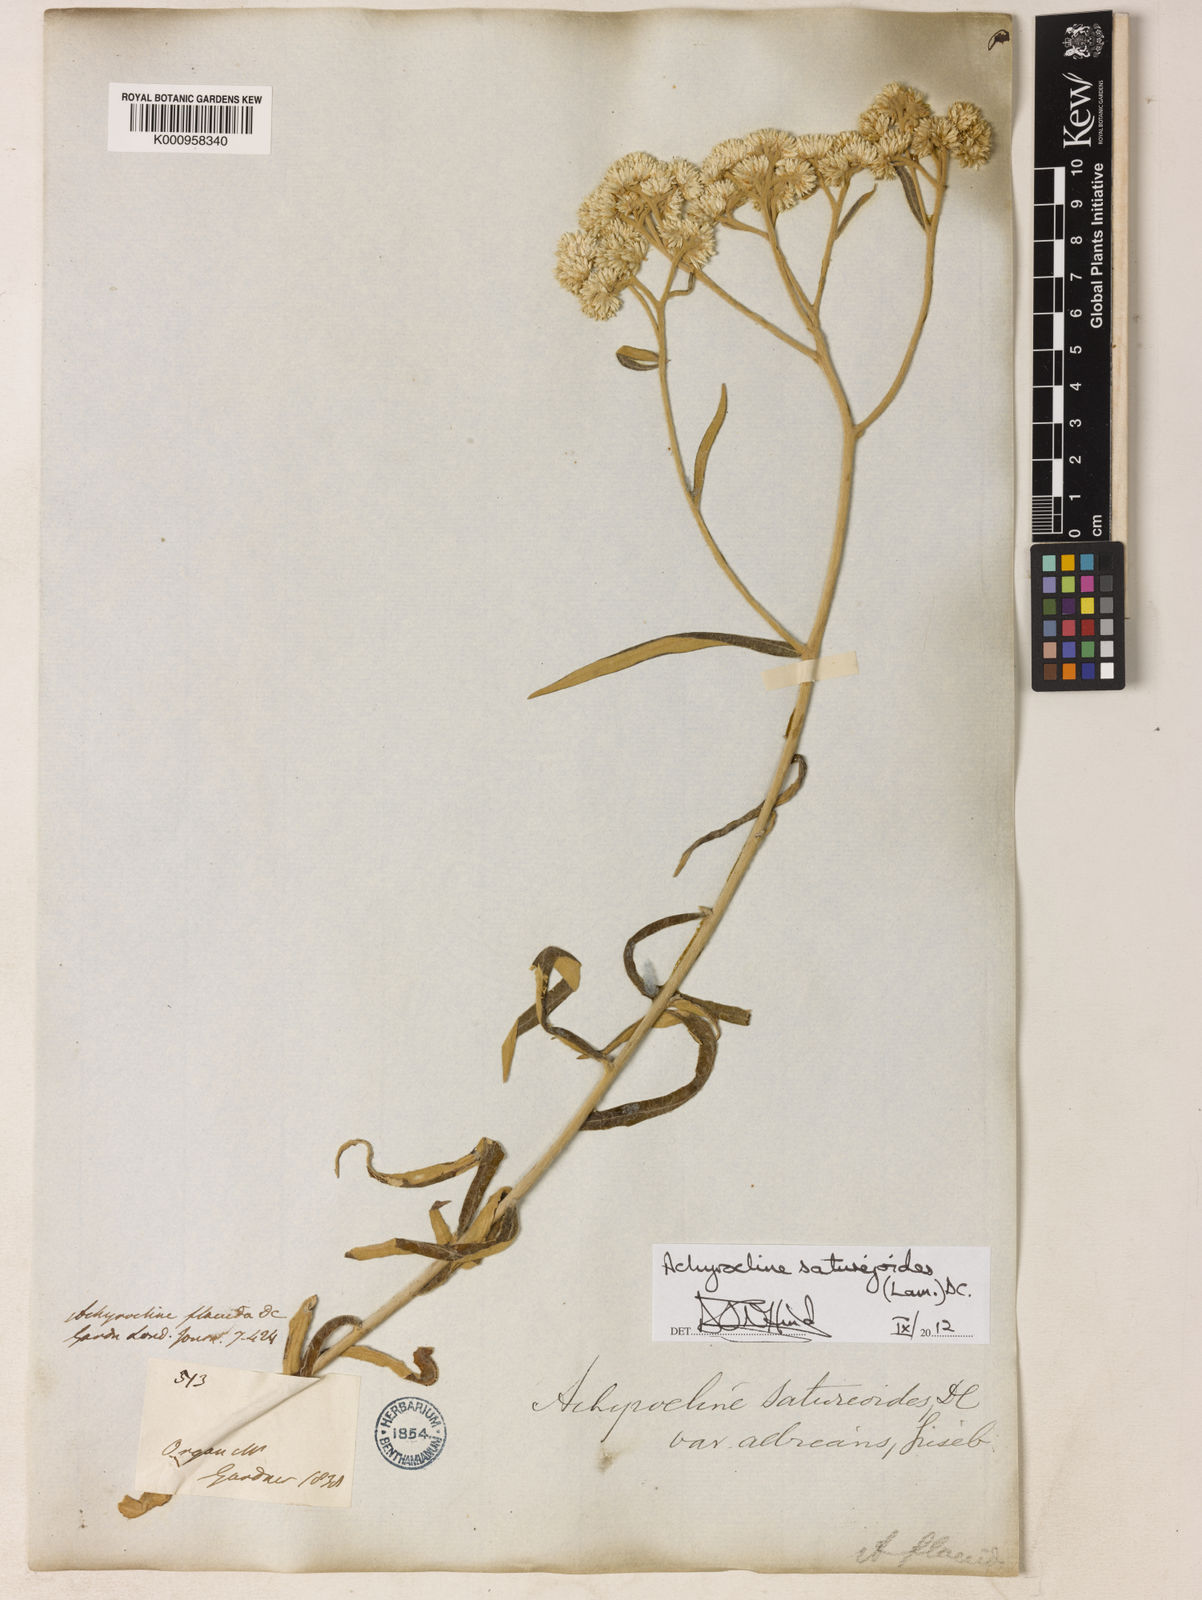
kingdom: Plantae
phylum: Tracheophyta
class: Magnoliopsida
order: Asterales
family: Asteraceae
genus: Achyrocline
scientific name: Achyrocline satureioides
